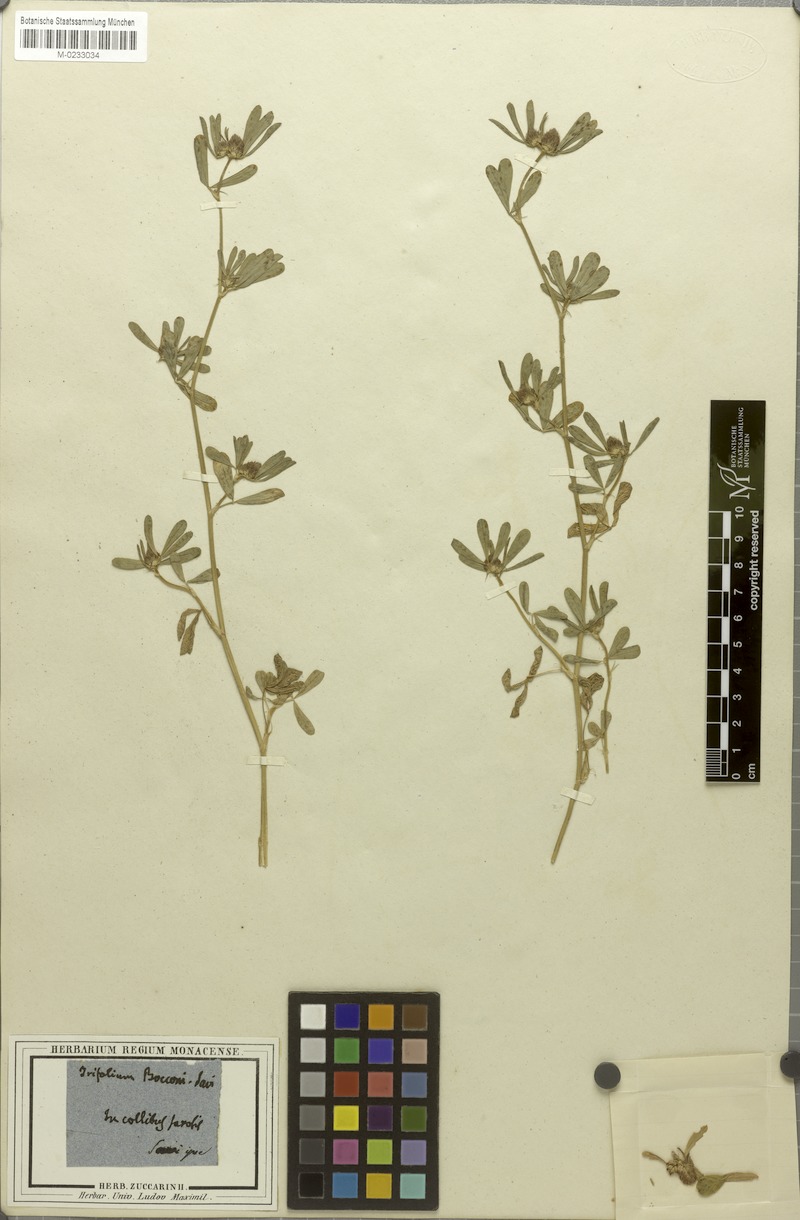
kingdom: Plantae
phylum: Tracheophyta
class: Magnoliopsida
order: Fabales
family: Fabaceae
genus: Trifolium
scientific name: Trifolium bocconei
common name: Twin-headed clover
